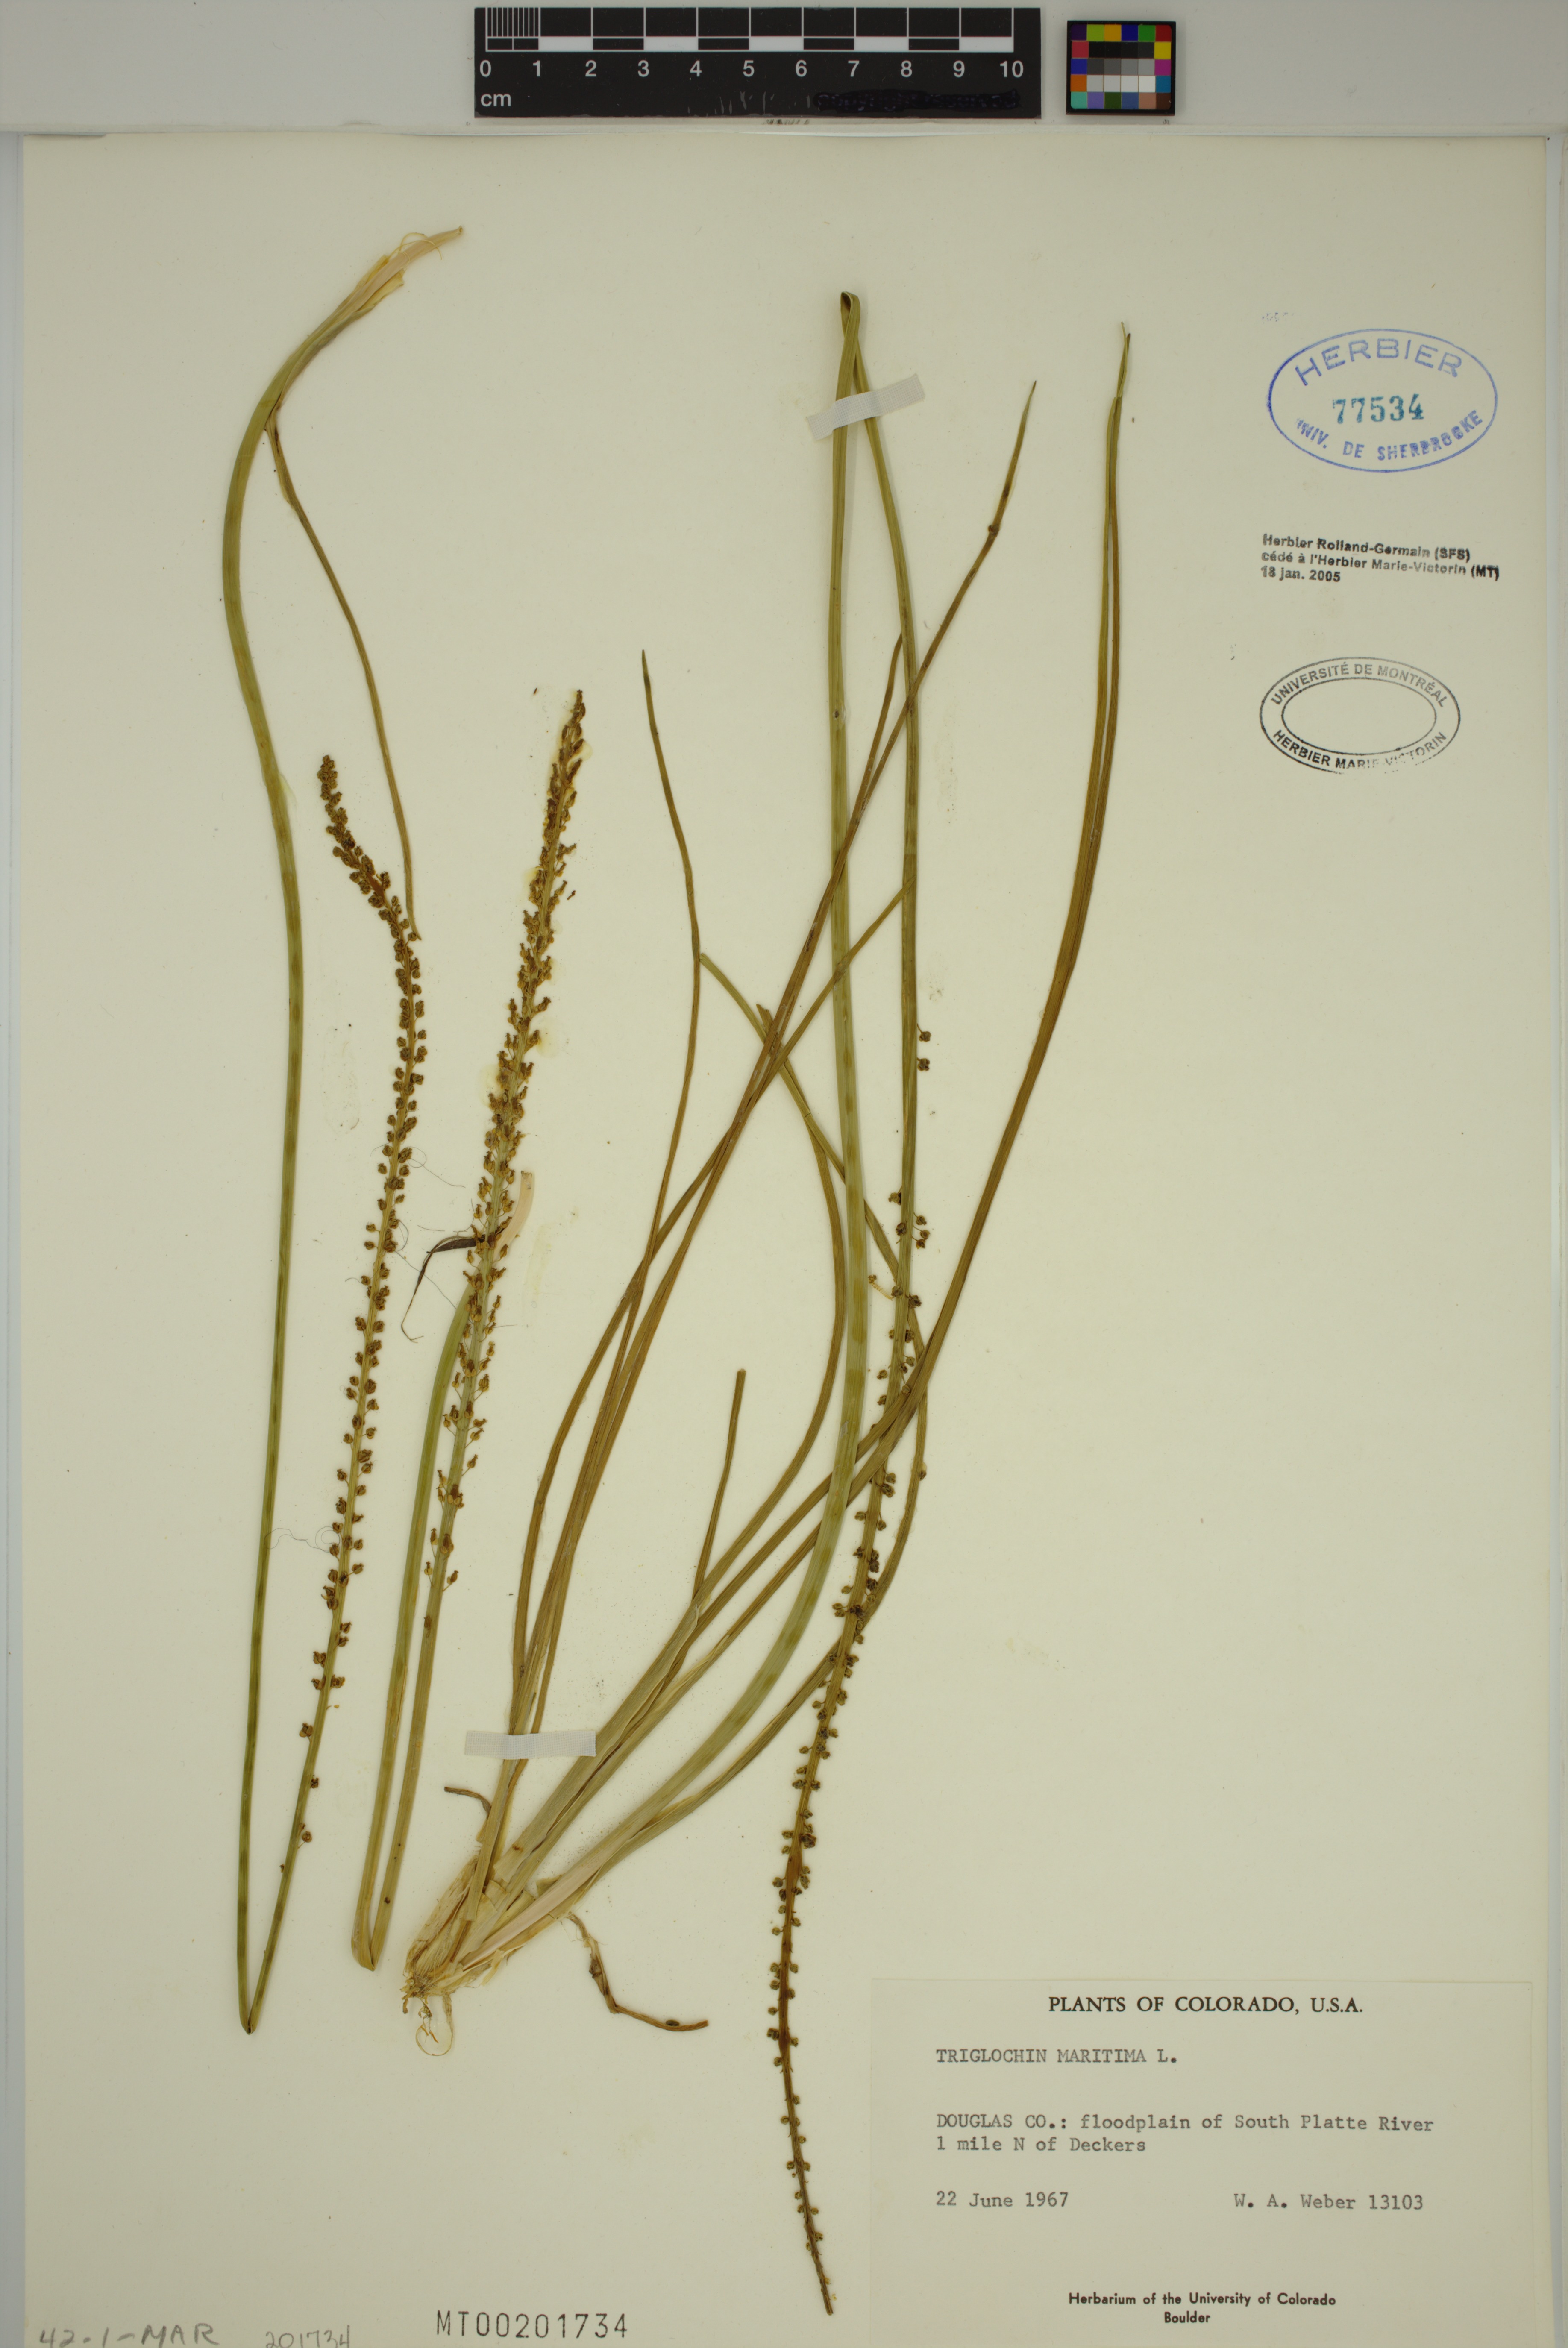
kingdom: Plantae
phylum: Tracheophyta
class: Liliopsida
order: Alismatales
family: Juncaginaceae
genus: Triglochin
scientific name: Triglochin maritima
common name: Sea arrowgrass
